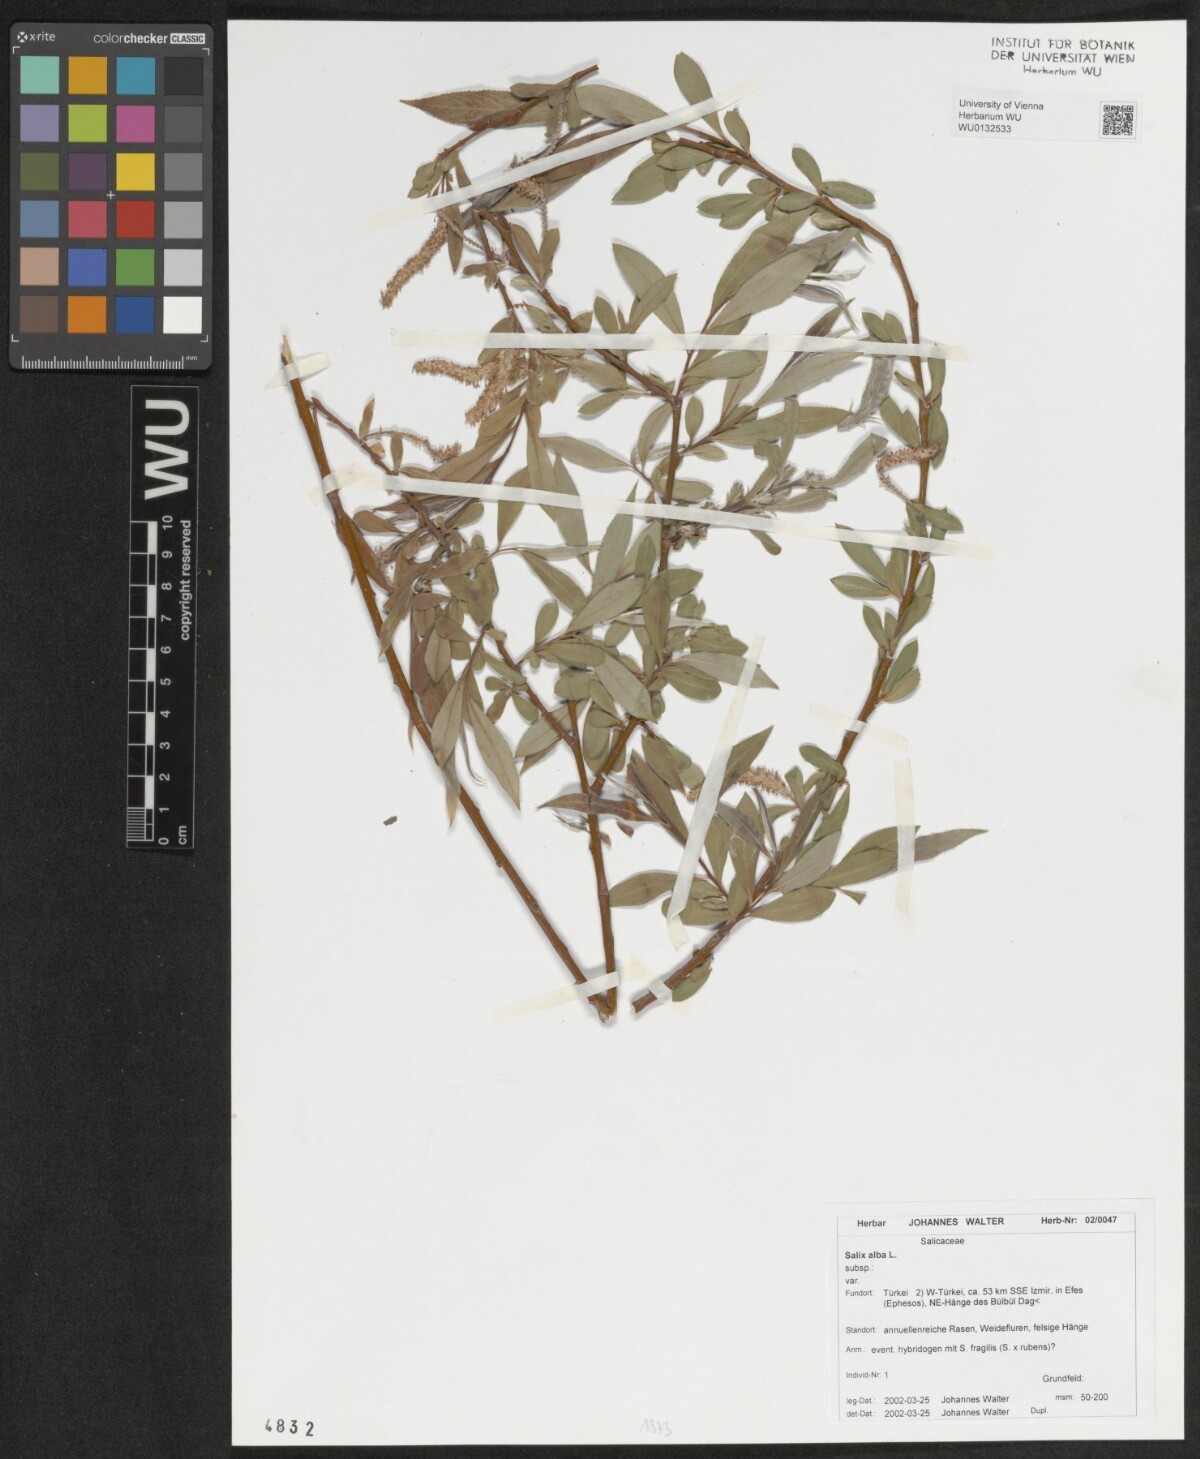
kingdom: Plantae
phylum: Tracheophyta
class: Magnoliopsida
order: Malpighiales
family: Salicaceae
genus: Salix
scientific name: Salix alba
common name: White willow
